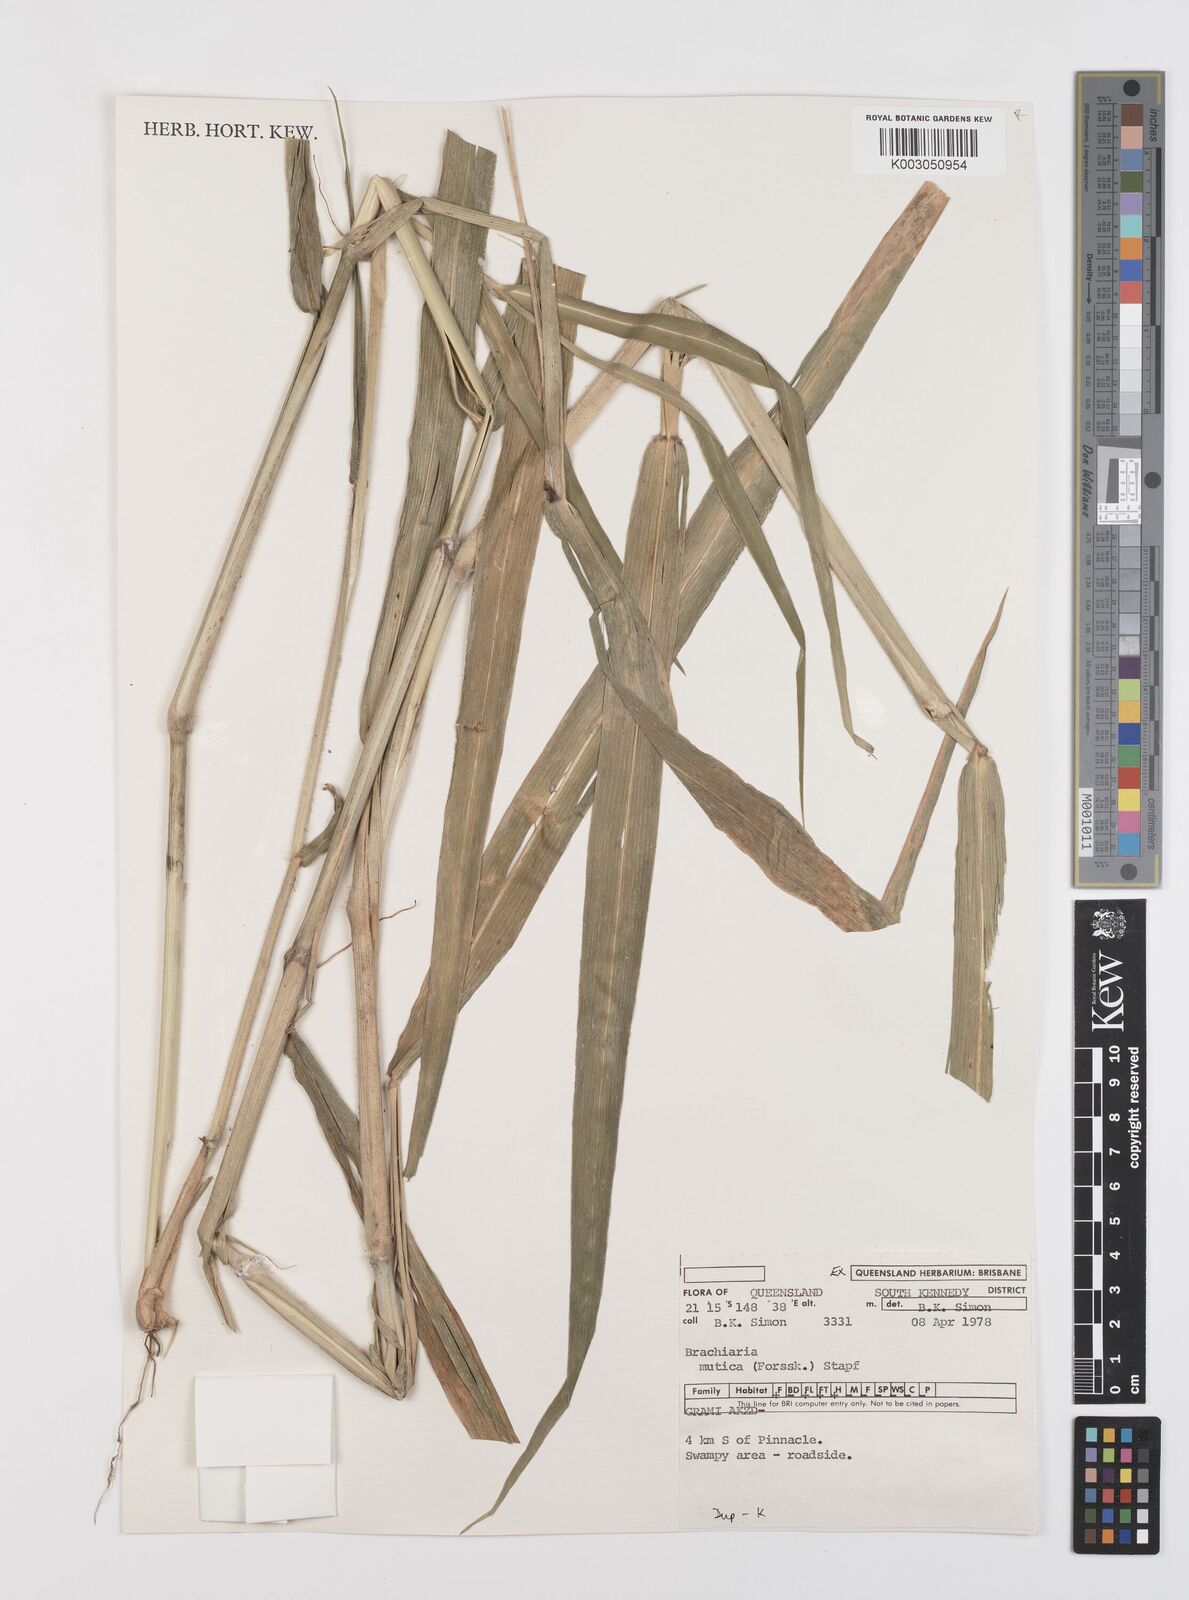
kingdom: Plantae
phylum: Tracheophyta
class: Liliopsida
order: Poales
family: Poaceae
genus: Urochloa
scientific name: Urochloa mutica
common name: Para grass
